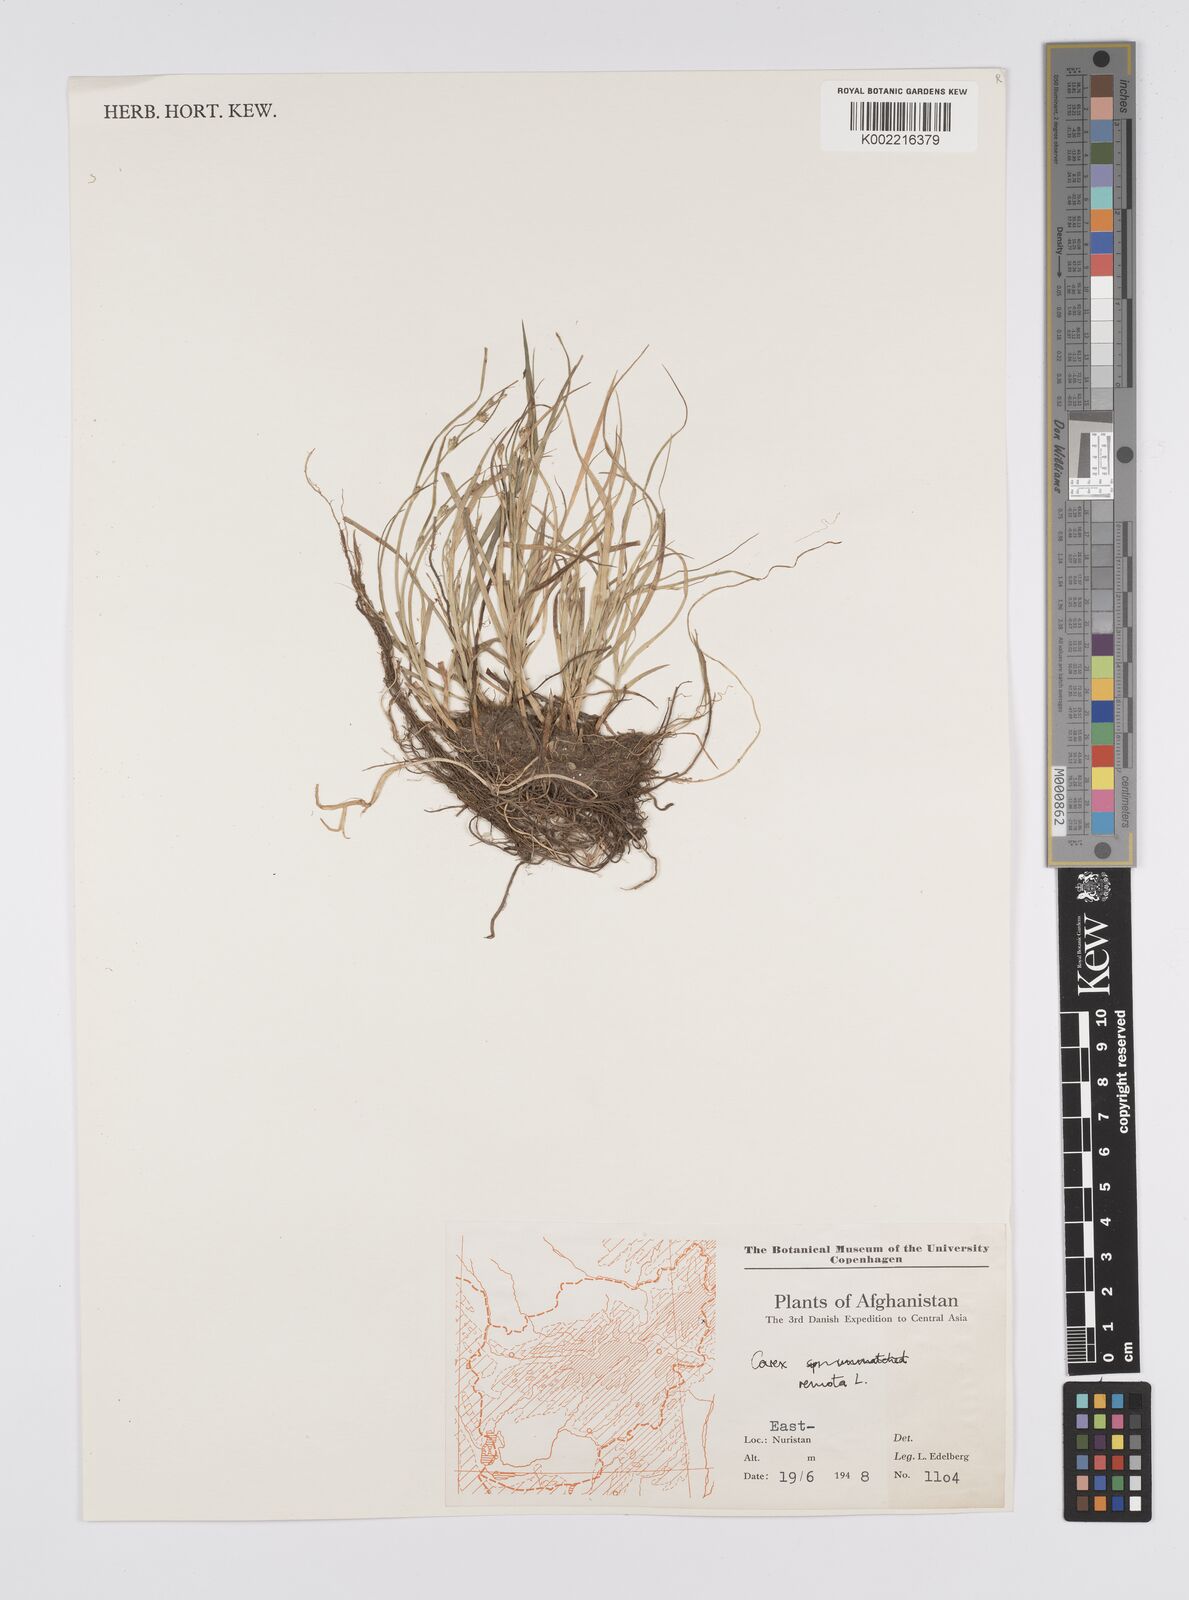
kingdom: Plantae
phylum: Tracheophyta
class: Liliopsida
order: Poales
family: Cyperaceae
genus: Carex
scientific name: Carex remota
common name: Remote sedge
